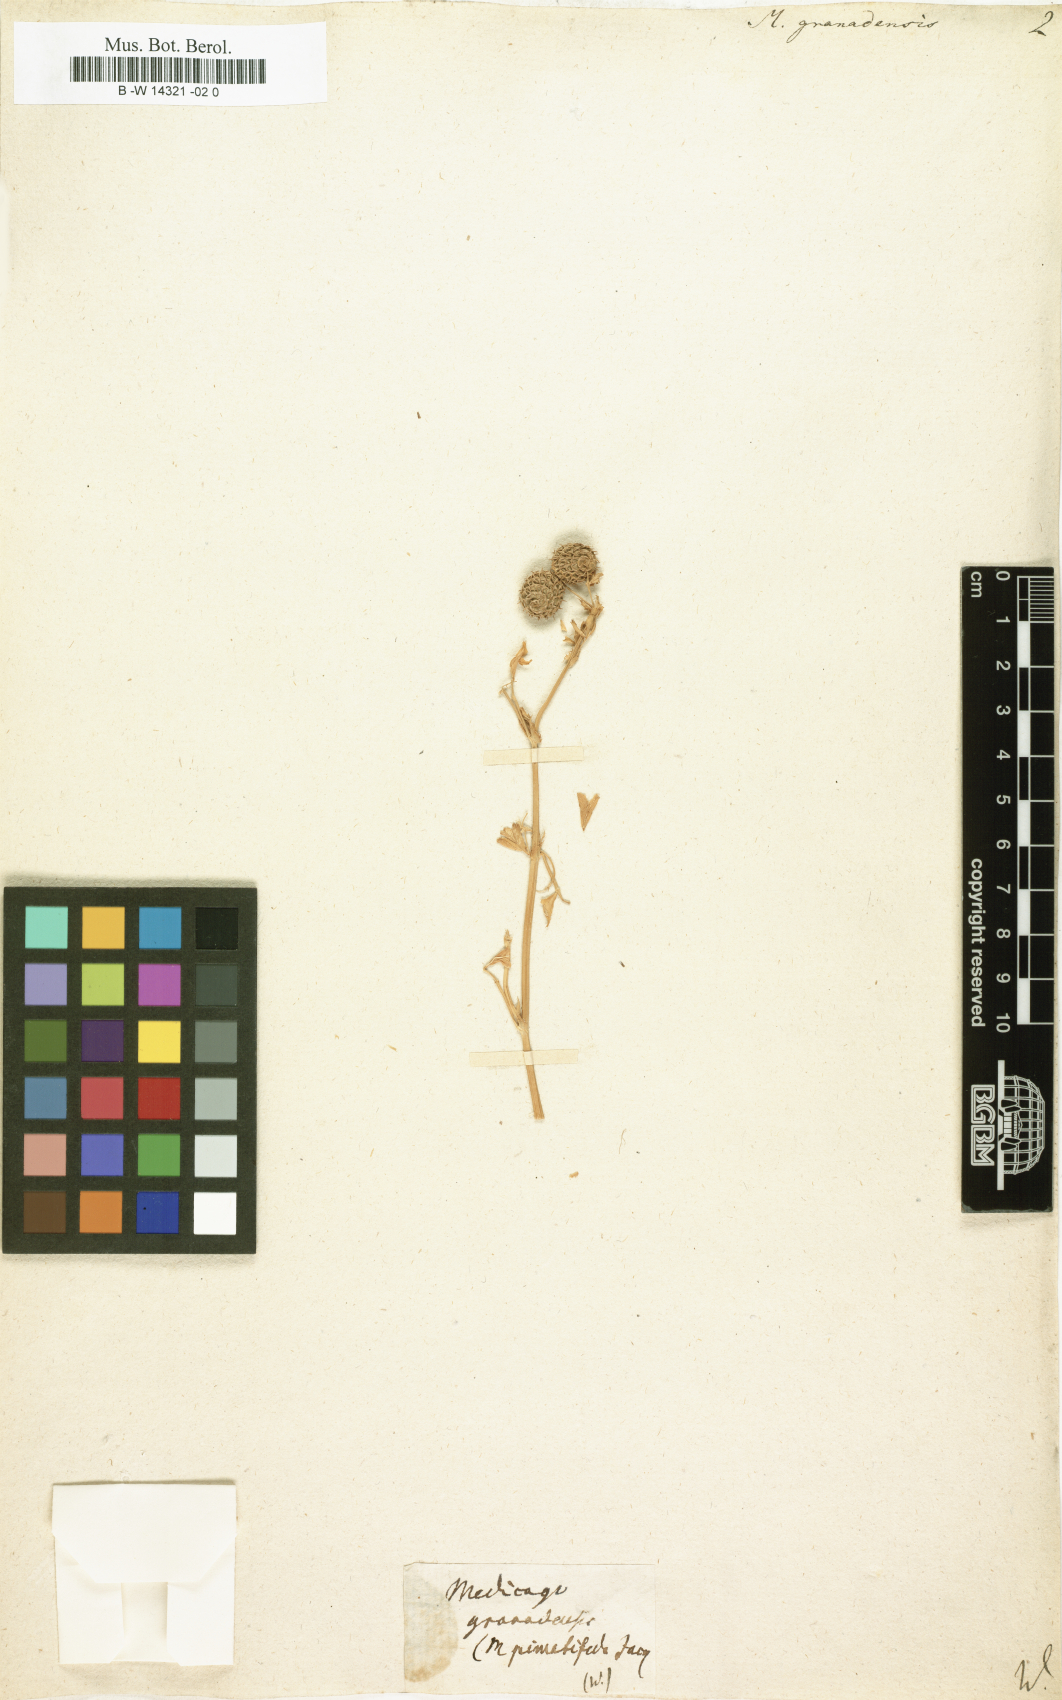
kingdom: Plantae
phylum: Tracheophyta
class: Magnoliopsida
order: Fabales
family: Fabaceae
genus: Medicago
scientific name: Medicago granadensis
